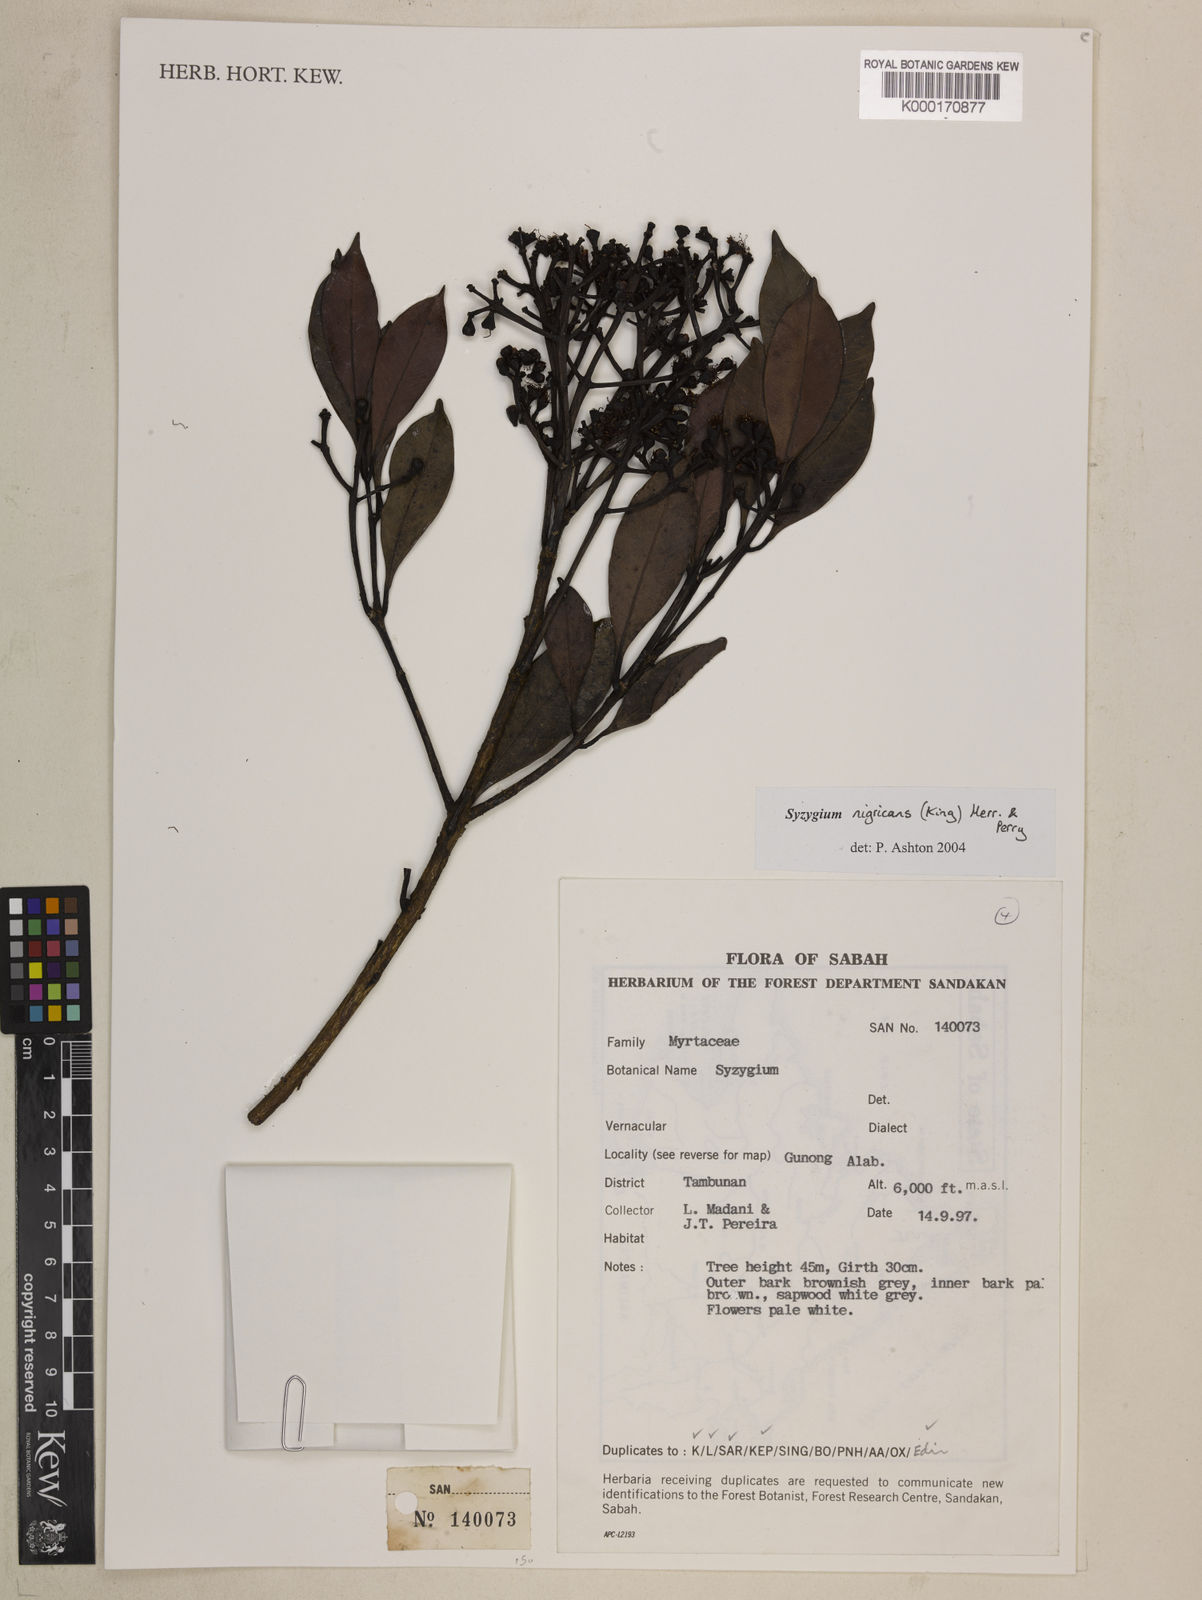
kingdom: Plantae
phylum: Tracheophyta
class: Magnoliopsida
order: Myrtales
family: Myrtaceae
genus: Syzygium
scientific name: Syzygium nigricans
